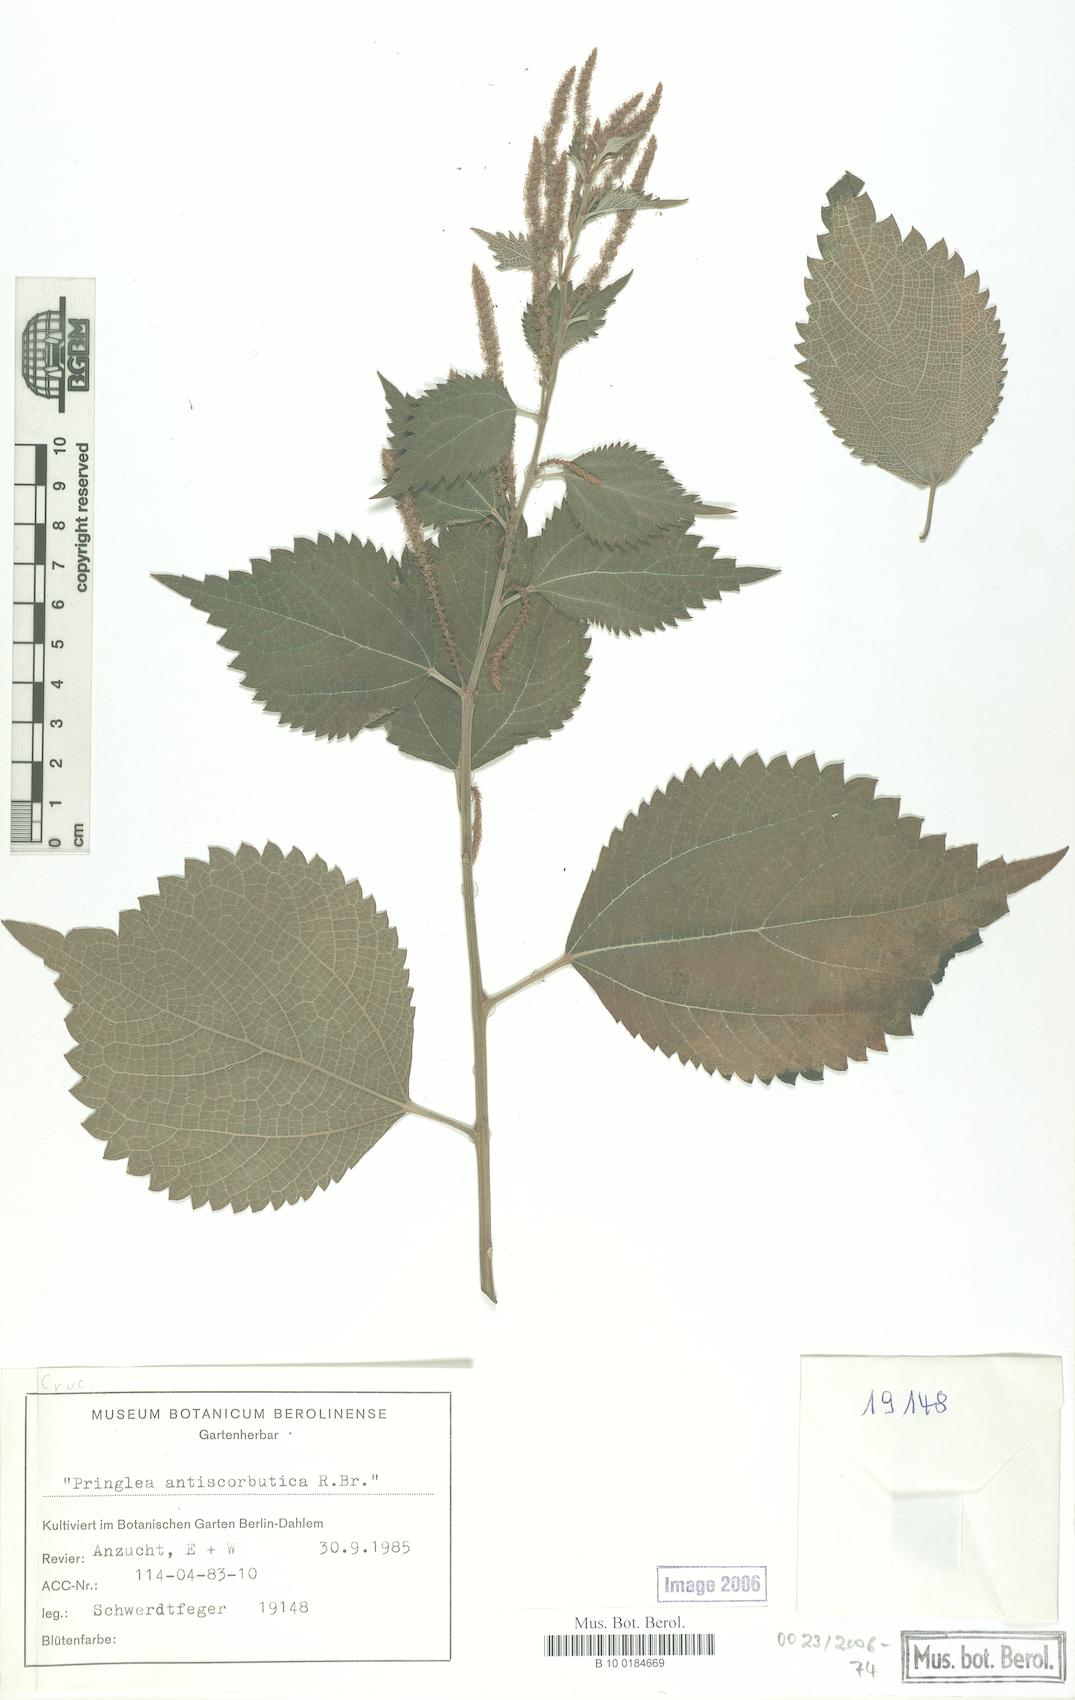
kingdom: Plantae
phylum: Tracheophyta
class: Magnoliopsida
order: Brassicales
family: Brassicaceae
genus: Pringlea
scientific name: Pringlea antiscorbutica
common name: Kerguelen-cabbage
